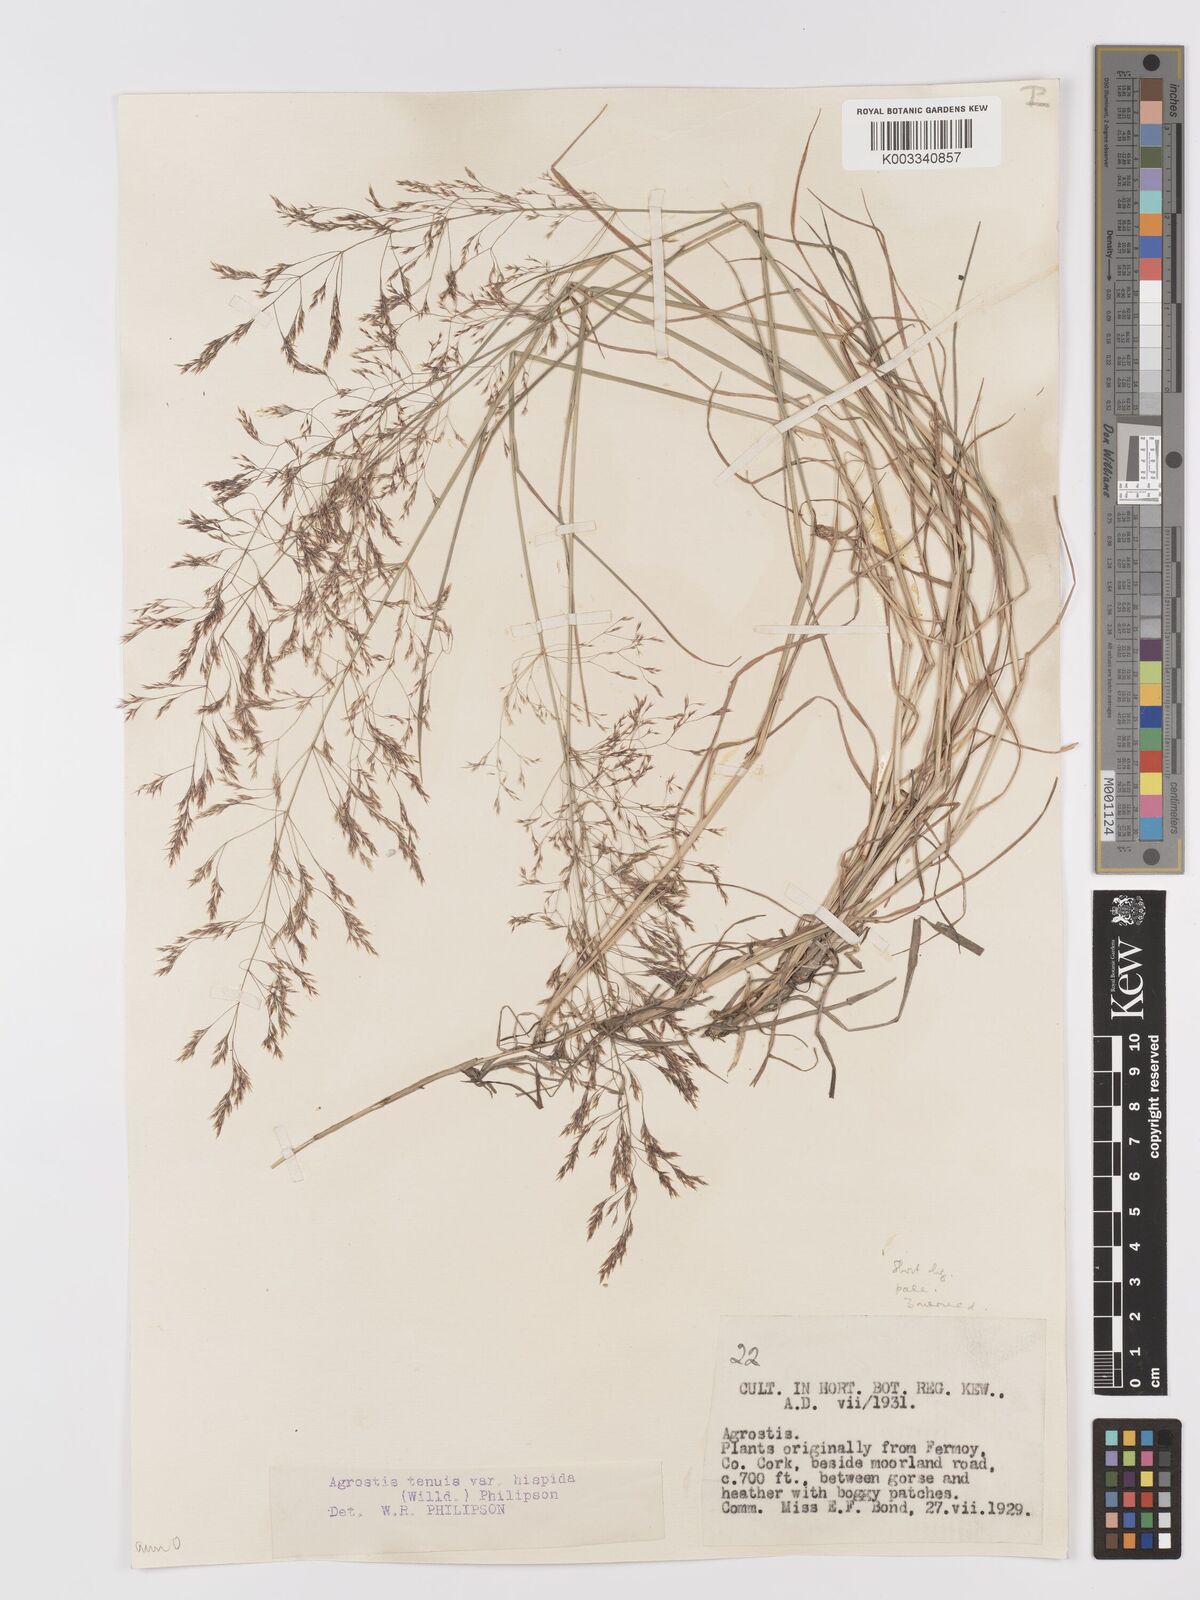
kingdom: Plantae
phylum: Tracheophyta
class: Liliopsida
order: Poales
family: Poaceae
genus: Agrostis
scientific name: Agrostis capillaris
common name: Colonial bentgrass
